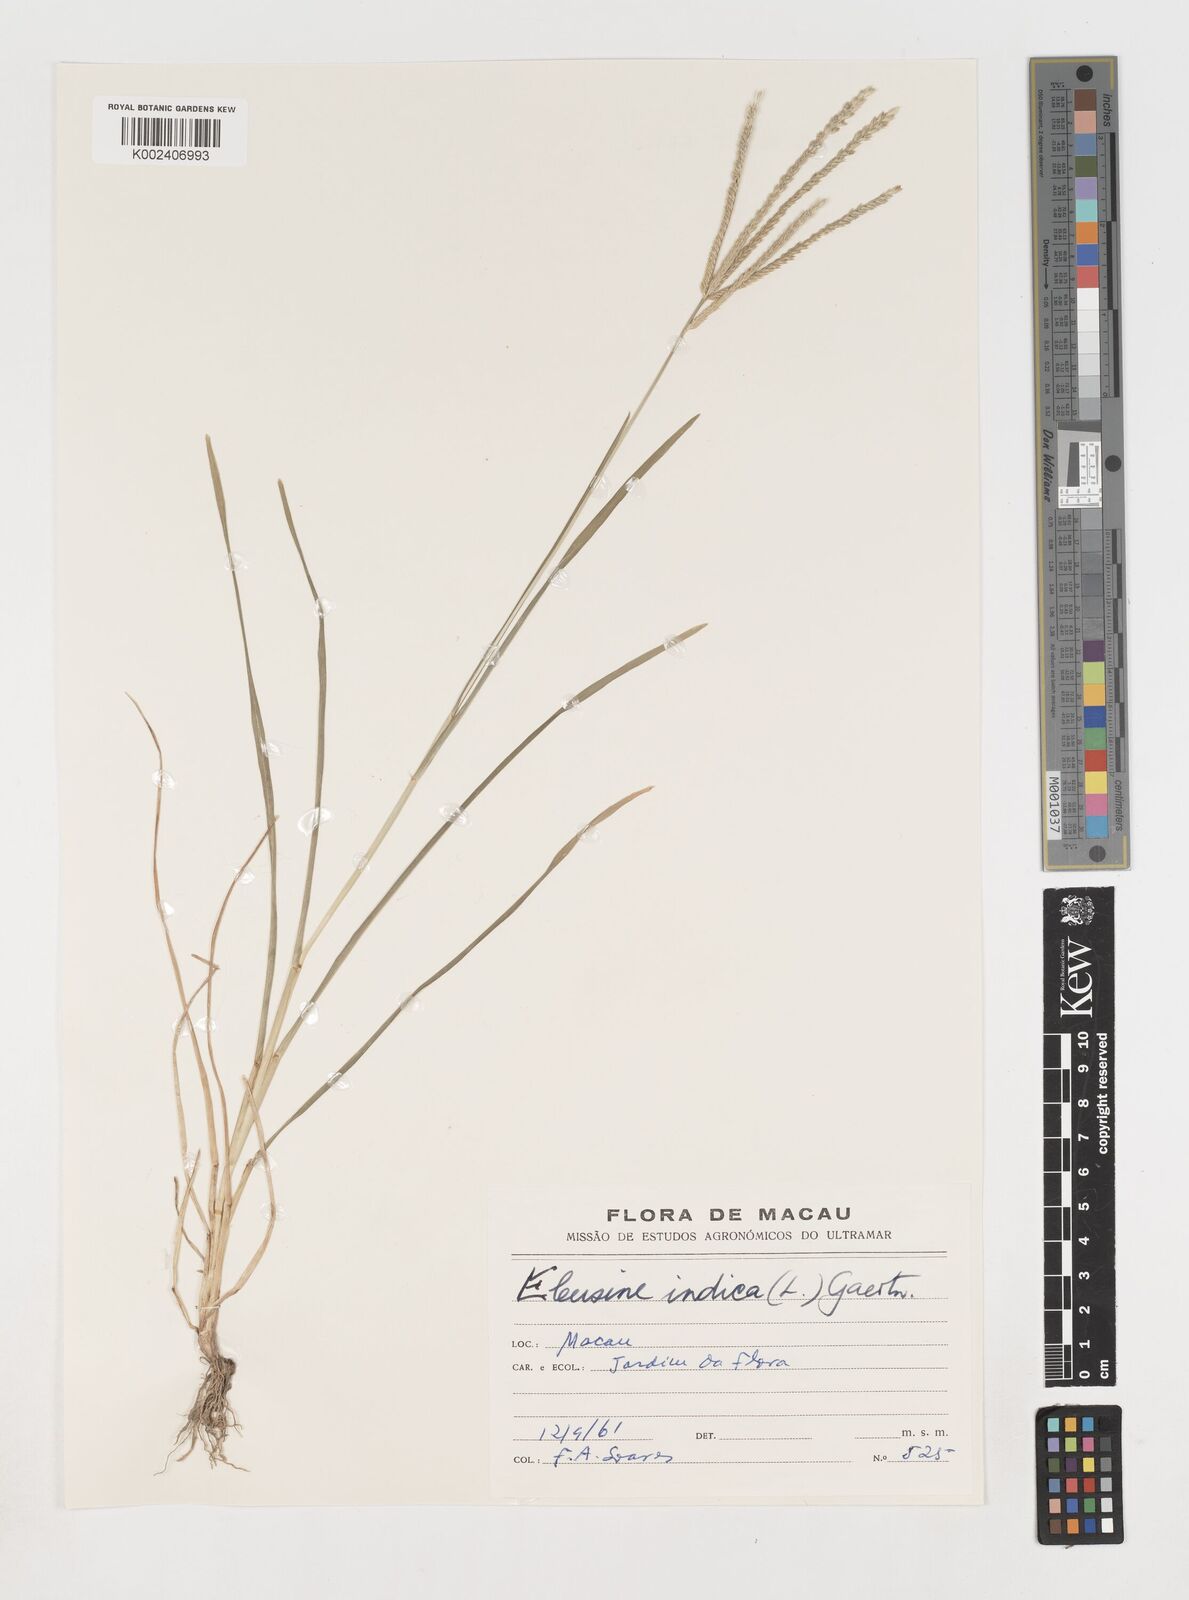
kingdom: Plantae
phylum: Tracheophyta
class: Liliopsida
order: Poales
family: Poaceae
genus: Eleusine
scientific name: Eleusine indica
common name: Yard-grass
